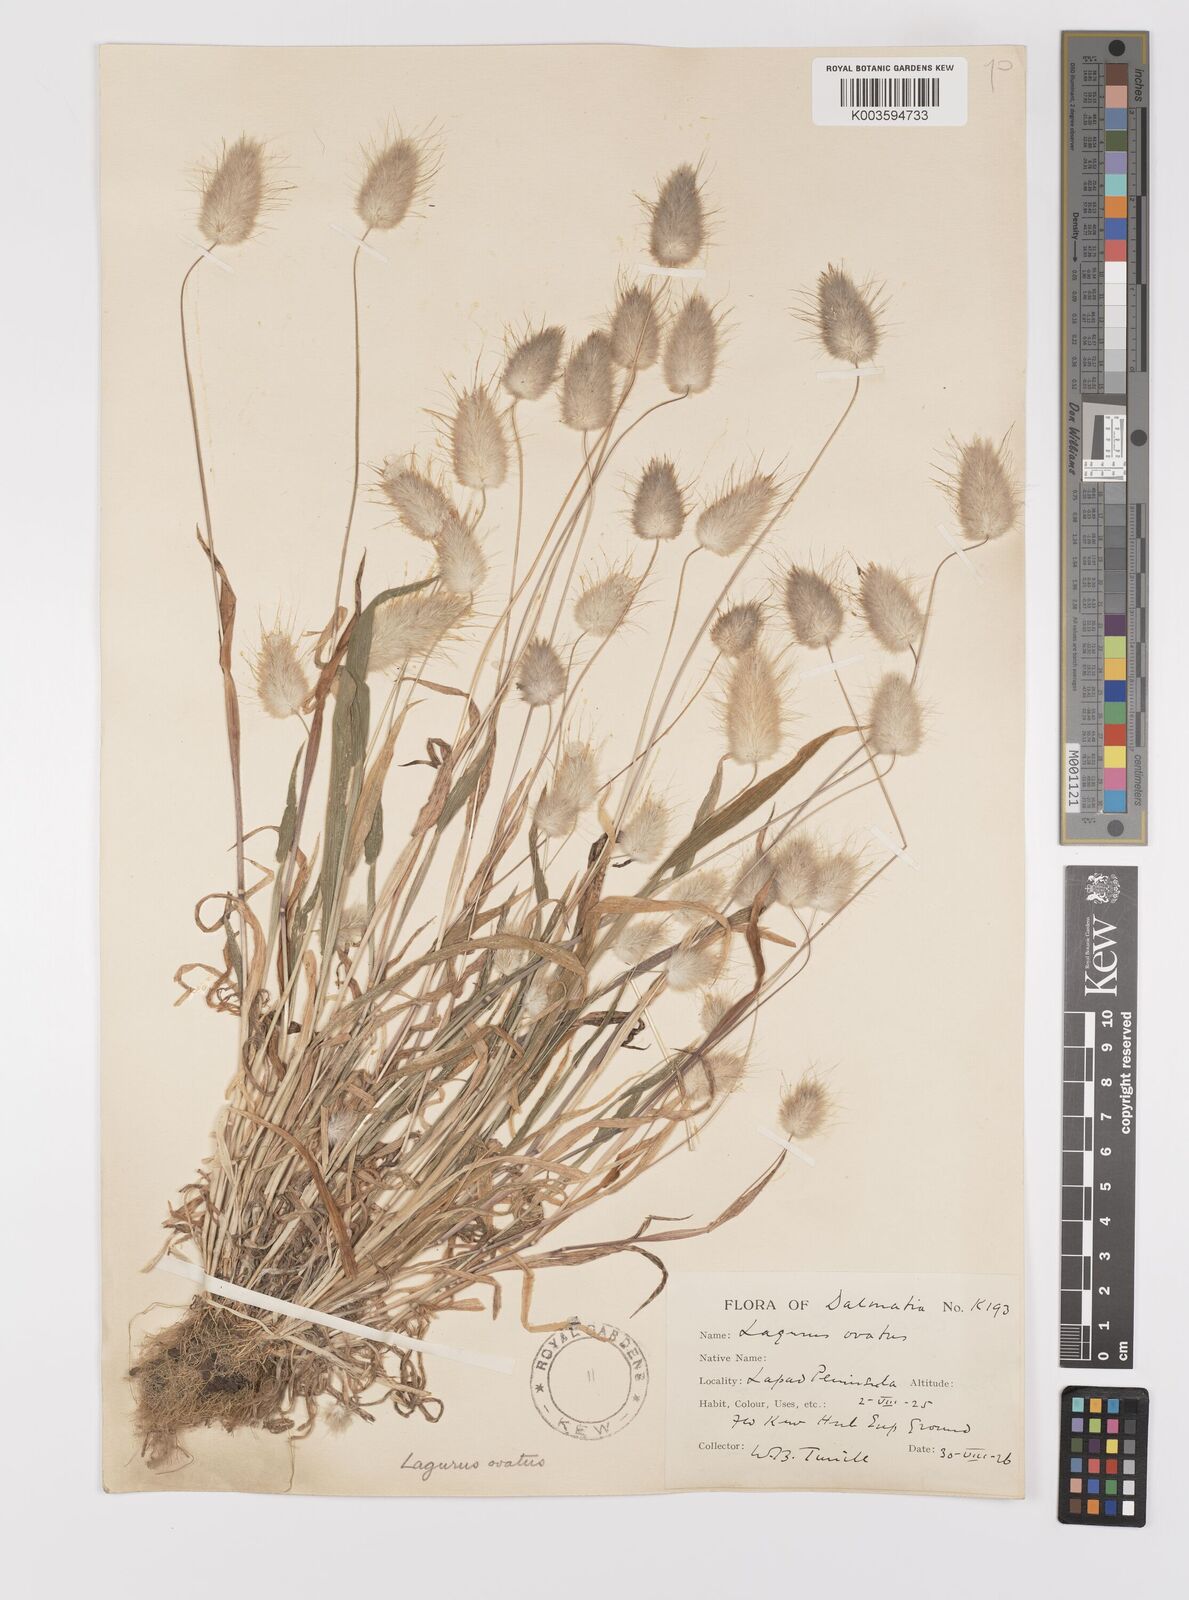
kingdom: Plantae
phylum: Tracheophyta
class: Liliopsida
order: Poales
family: Poaceae
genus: Lagurus
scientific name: Lagurus ovatus
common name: Hare's-tail
